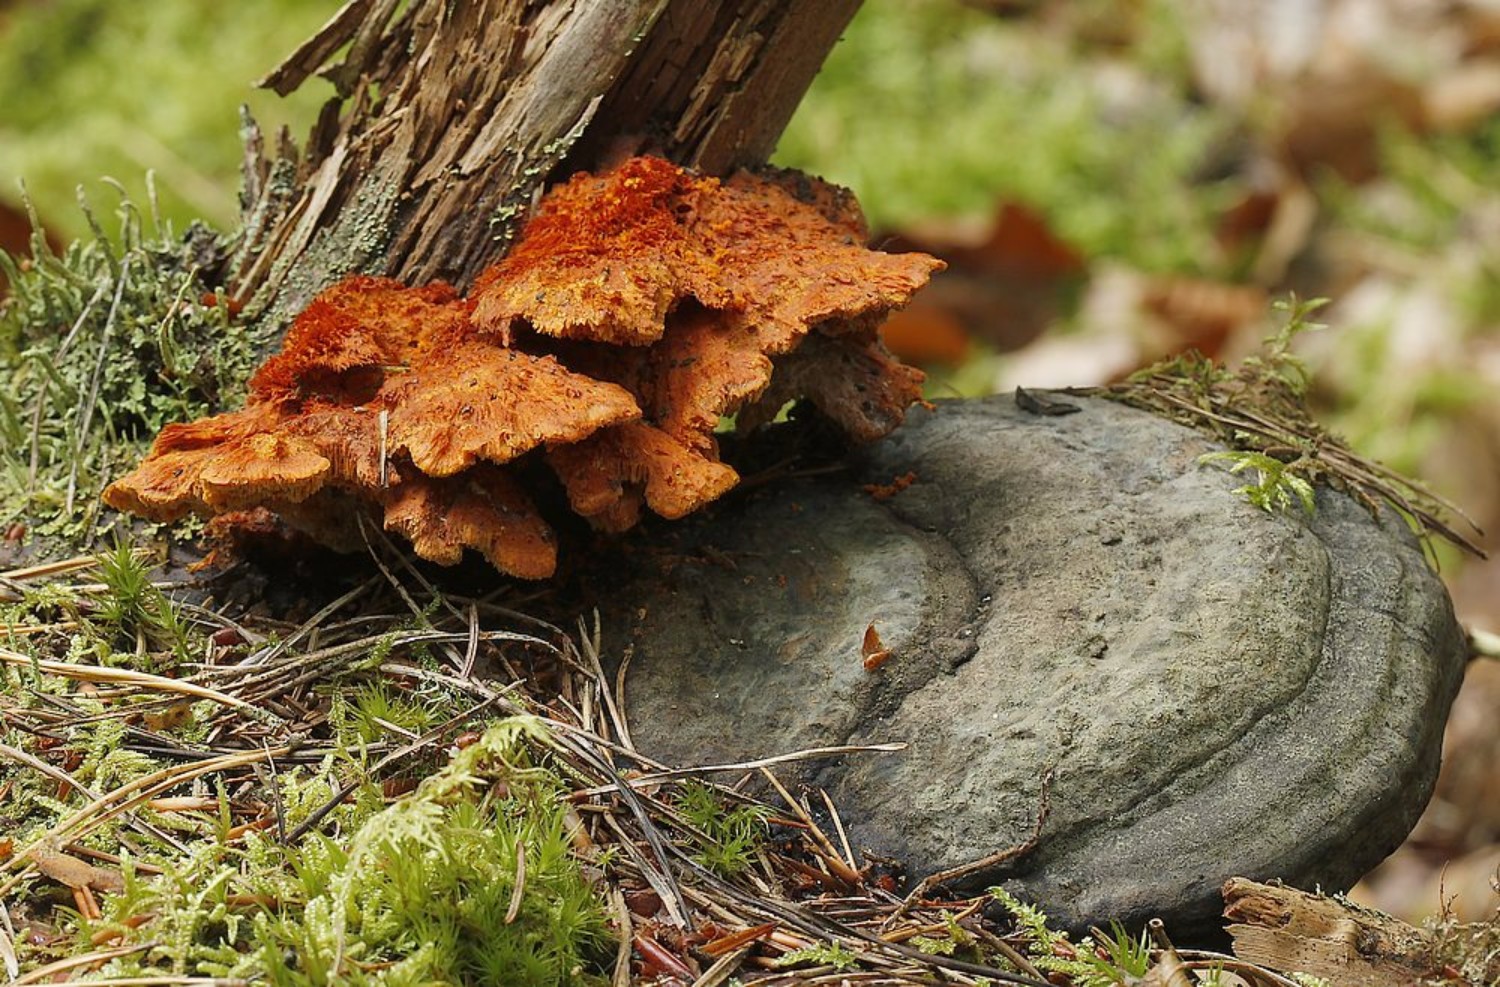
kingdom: Fungi
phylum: Basidiomycota
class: Agaricomycetes
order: Polyporales
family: Pycnoporellaceae
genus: Pycnoporellus
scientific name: Pycnoporellus fulgens
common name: flammeporesvamp
